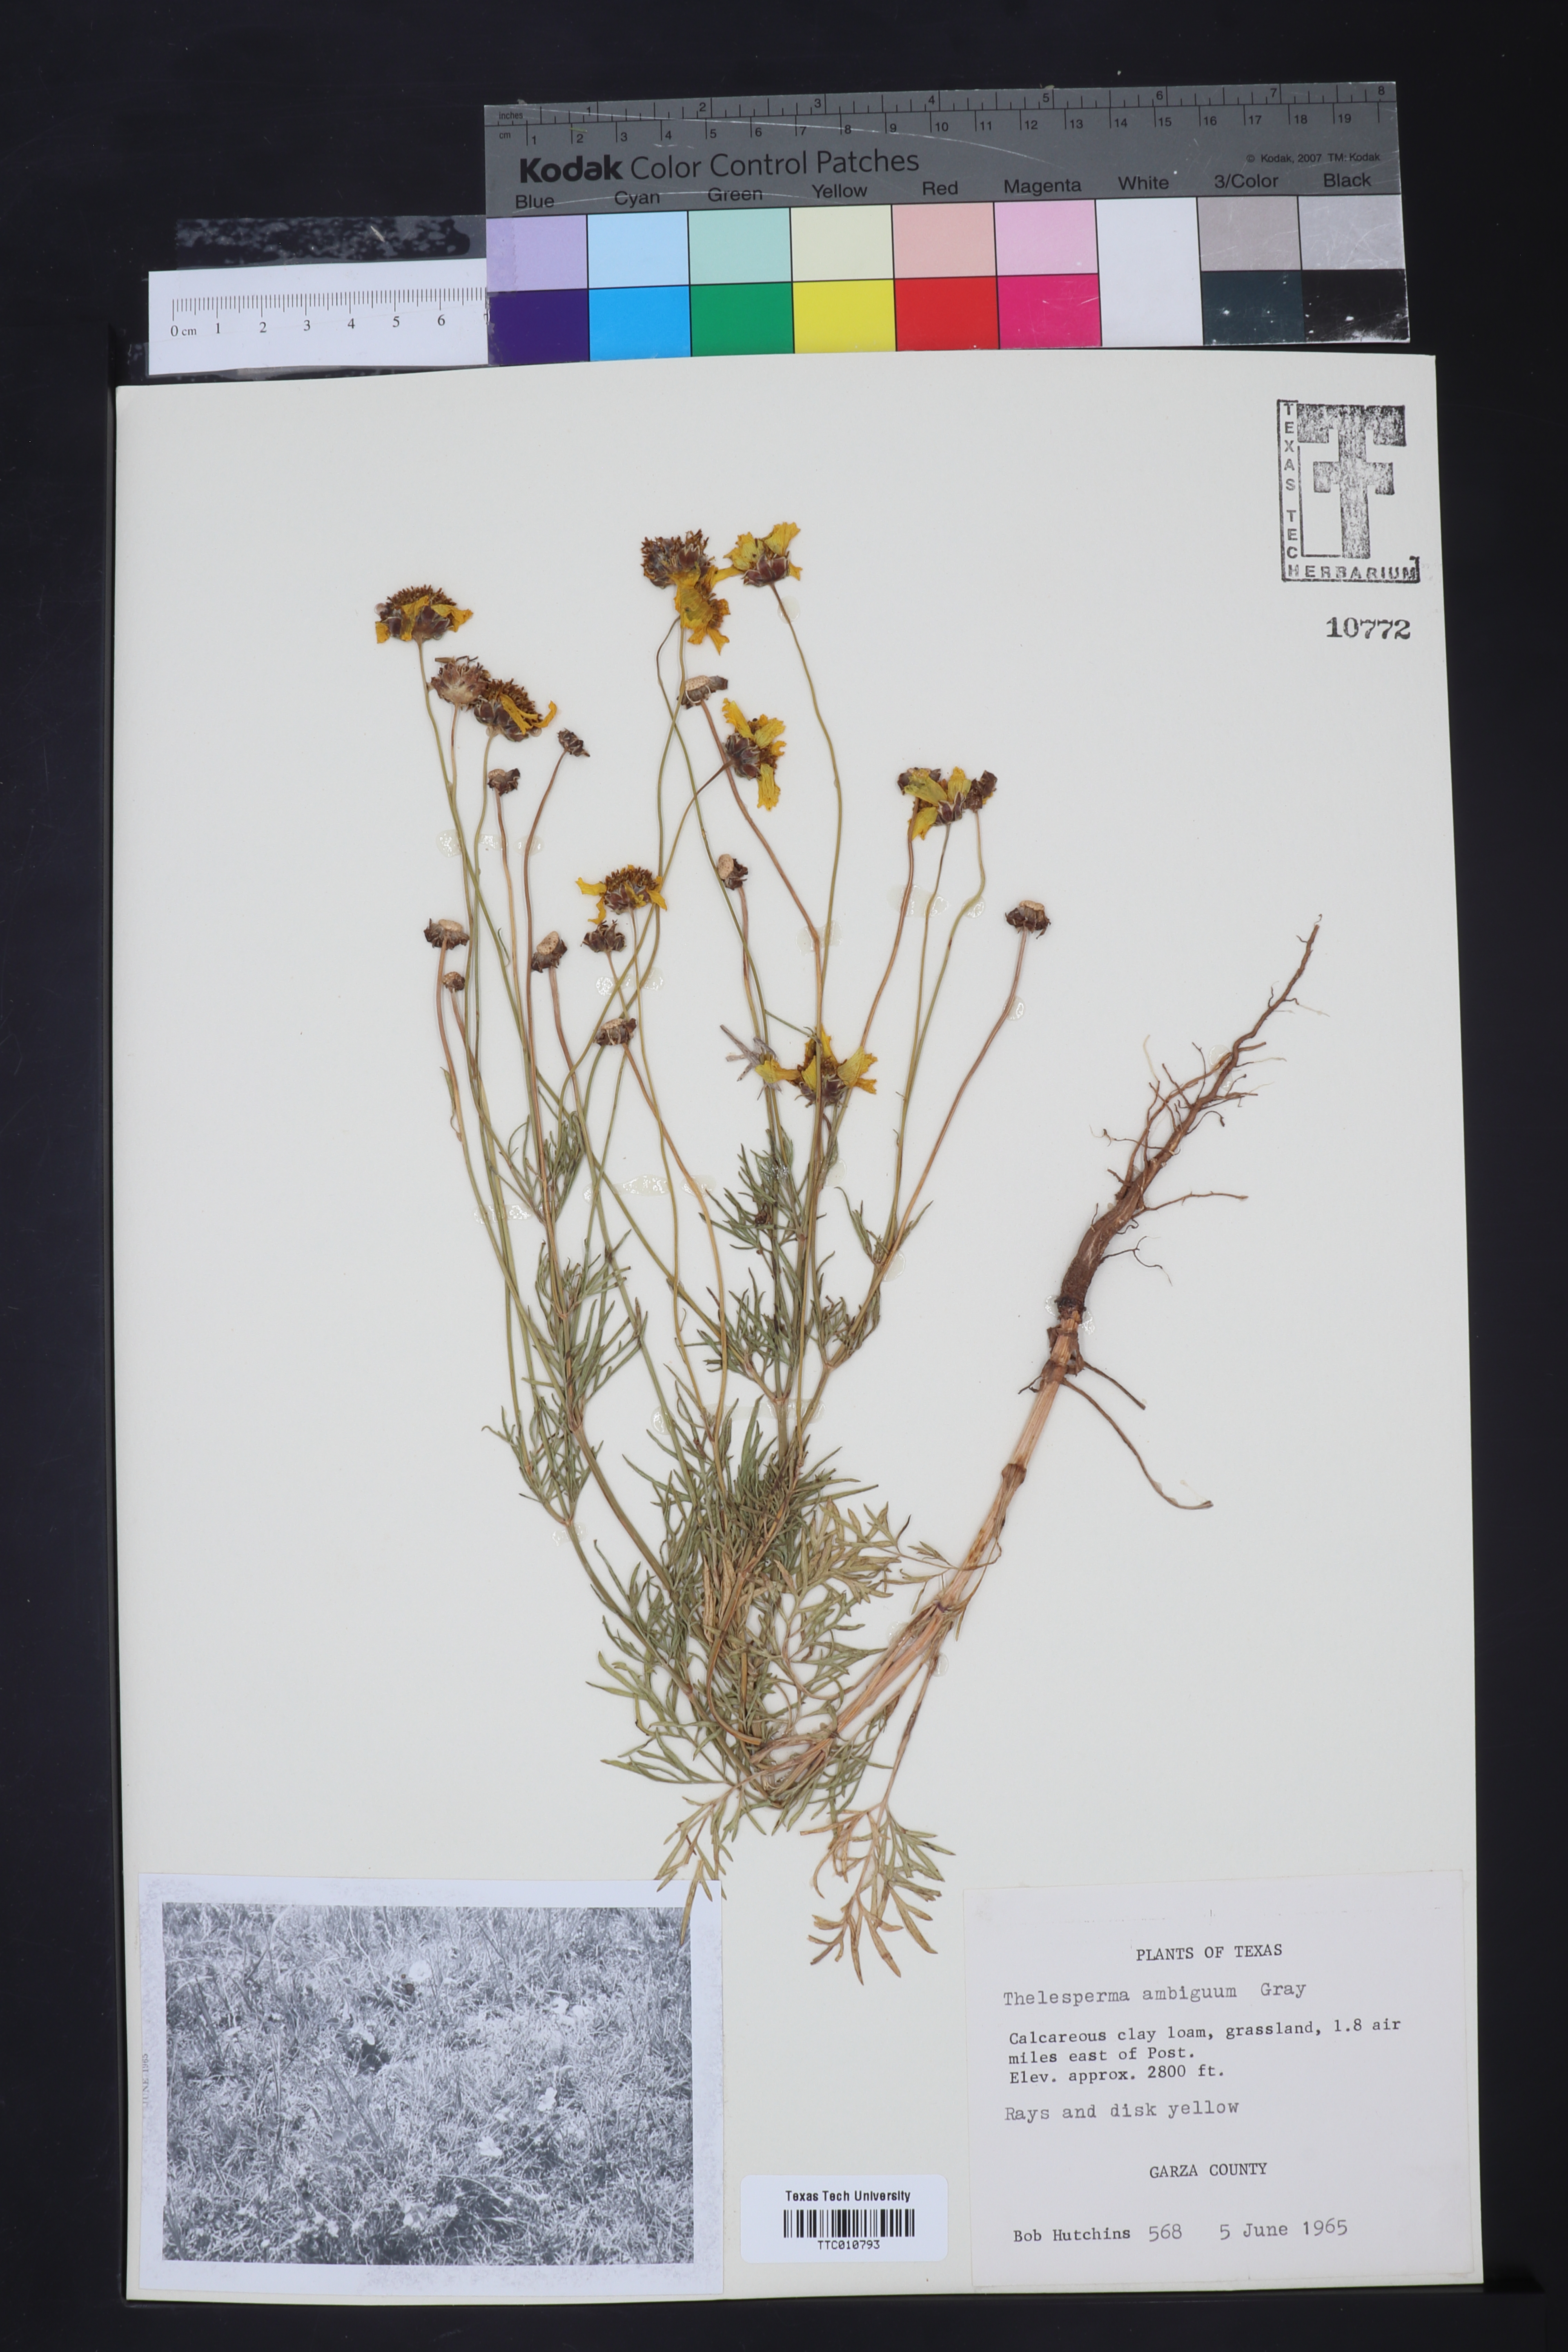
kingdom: Plantae
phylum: Tracheophyta
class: Magnoliopsida
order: Asterales
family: Asteraceae
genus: Thelesperma
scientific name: Thelesperma ambiguum
